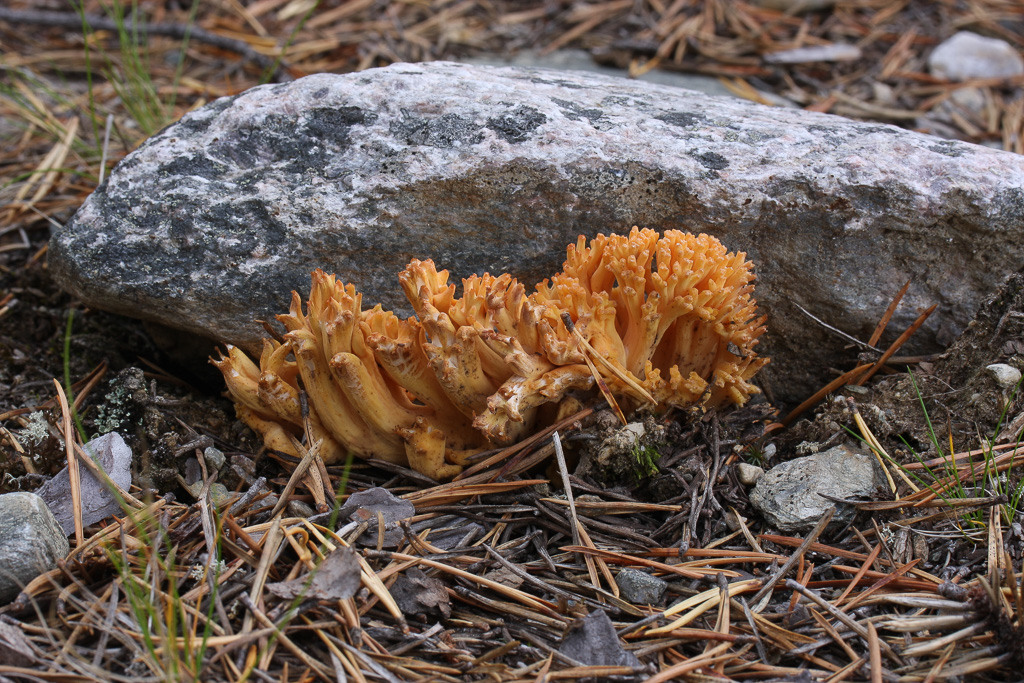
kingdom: Fungi
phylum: Basidiomycota
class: Agaricomycetes
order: Gomphales
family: Gomphaceae
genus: Ramaria
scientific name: Ramaria formosa
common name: Salmon coral
